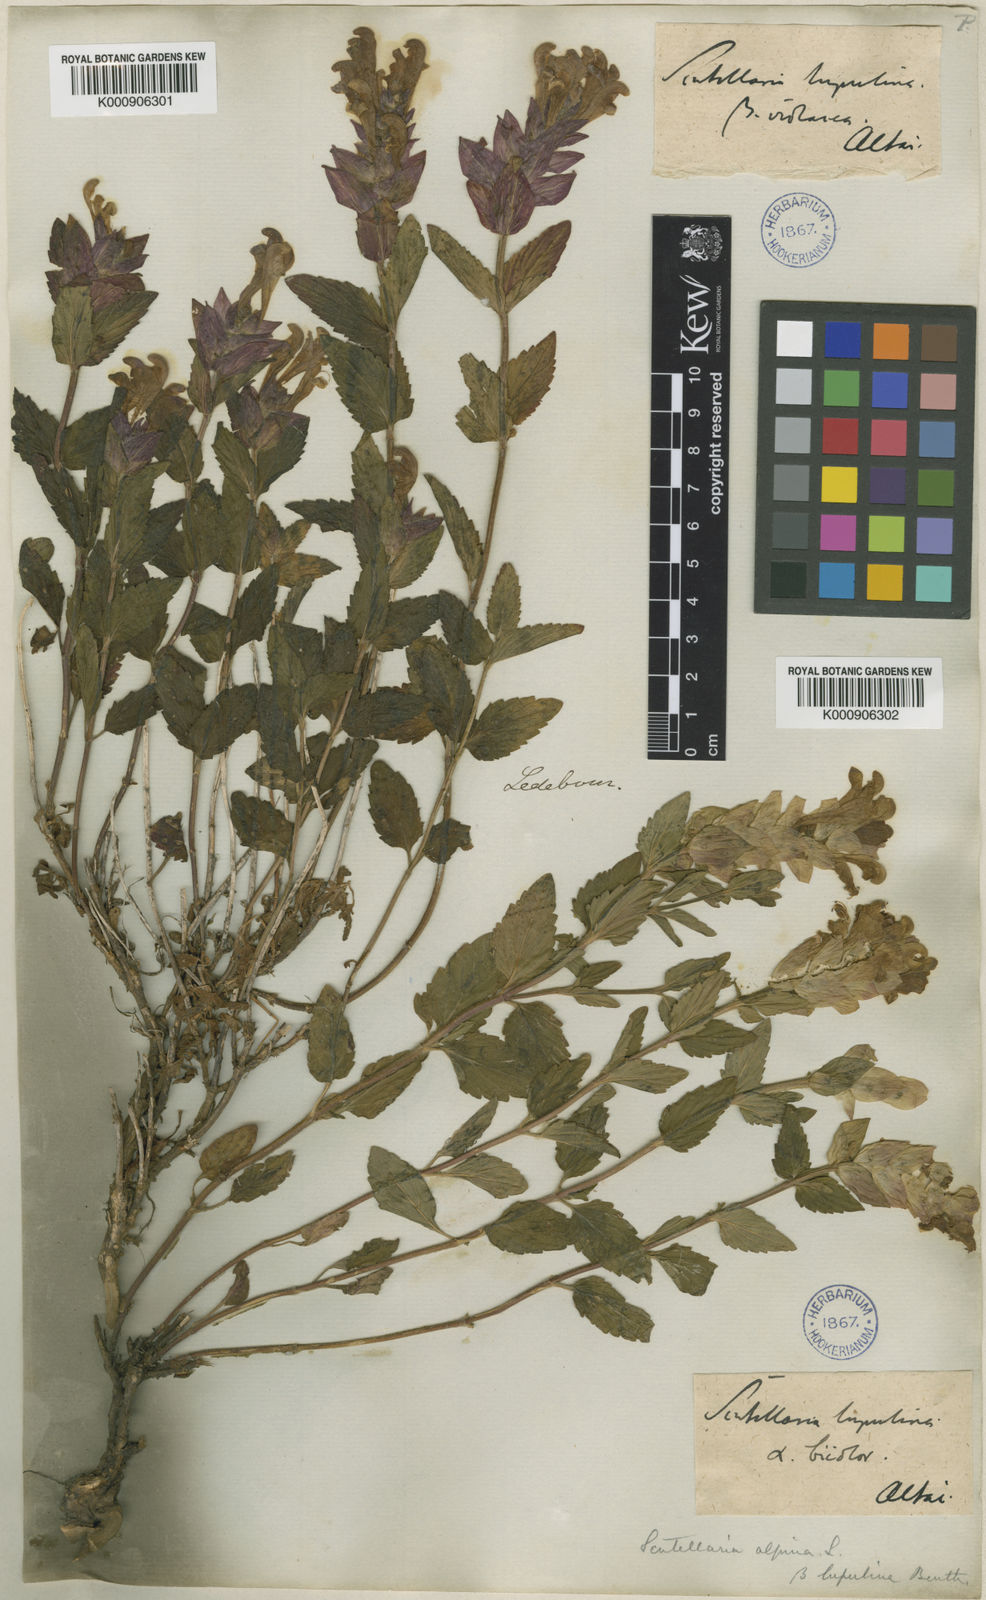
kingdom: Plantae
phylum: Tracheophyta
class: Magnoliopsida
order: Lamiales
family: Lamiaceae
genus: Scutellaria
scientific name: Scutellaria supina
